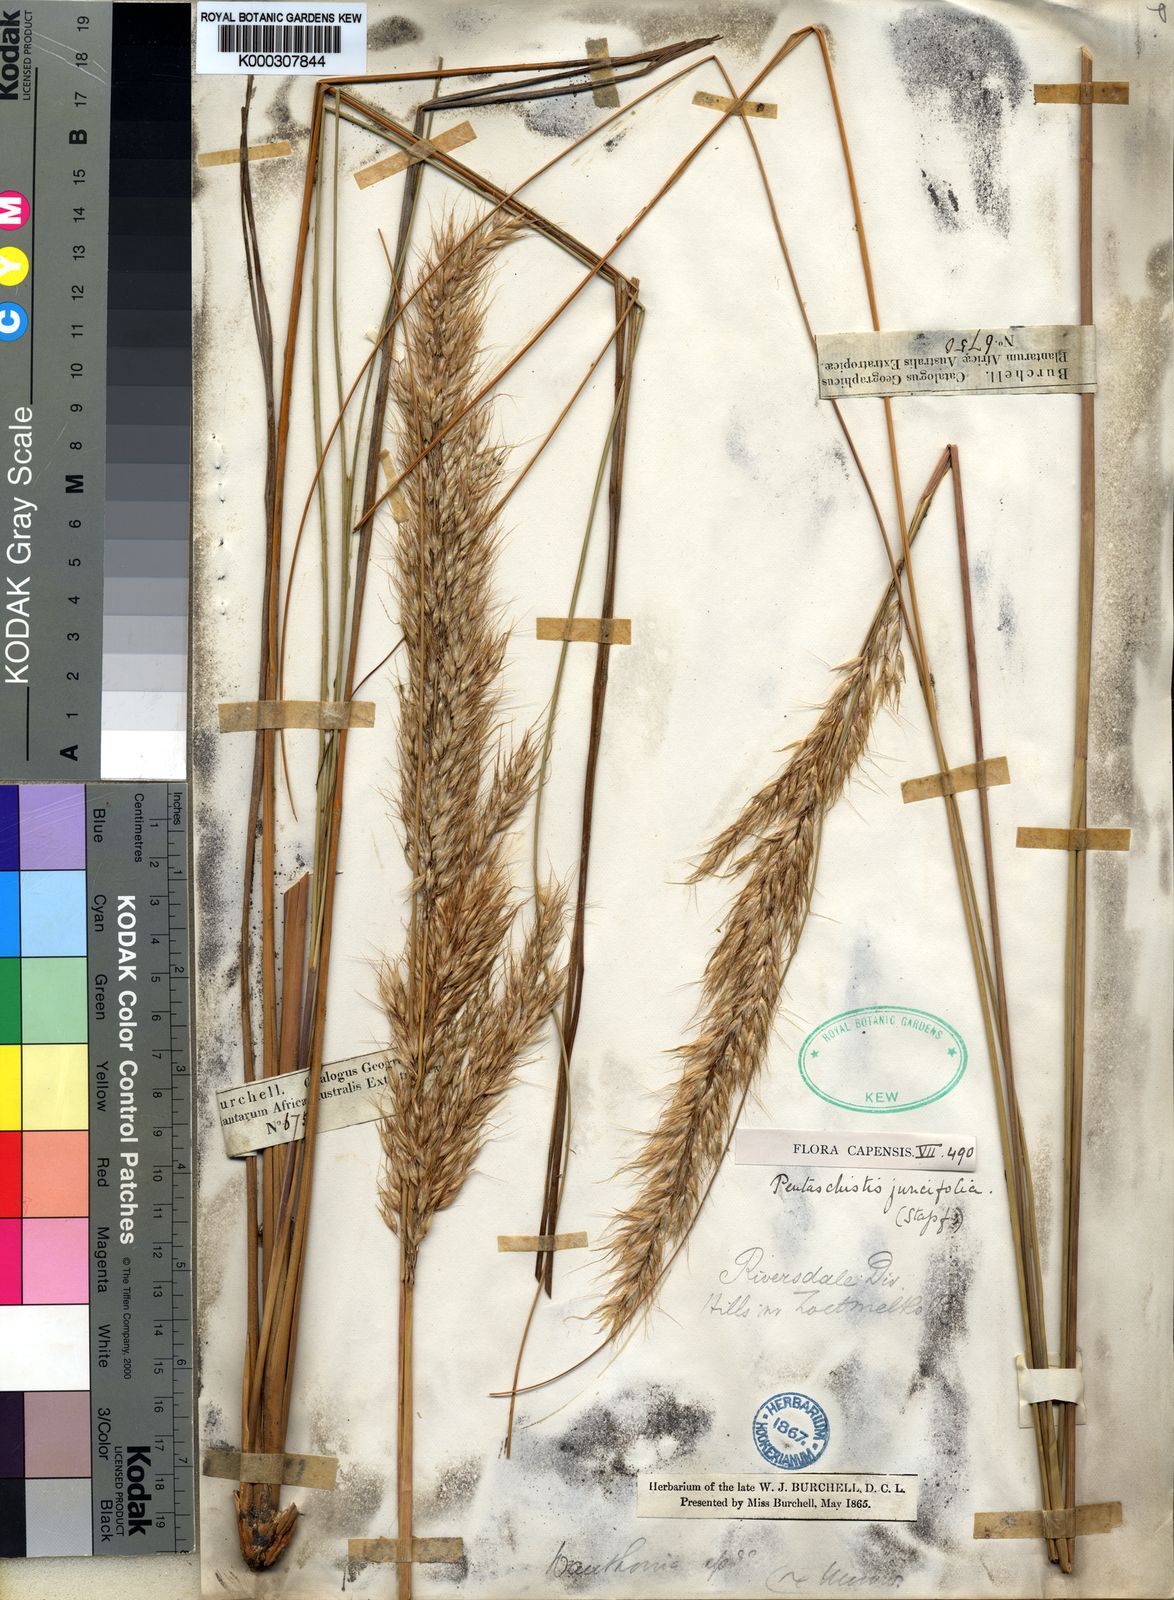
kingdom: Plantae
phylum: Tracheophyta
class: Liliopsida
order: Poales
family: Poaceae
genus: Pentameris
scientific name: Pentameris eriostoma
